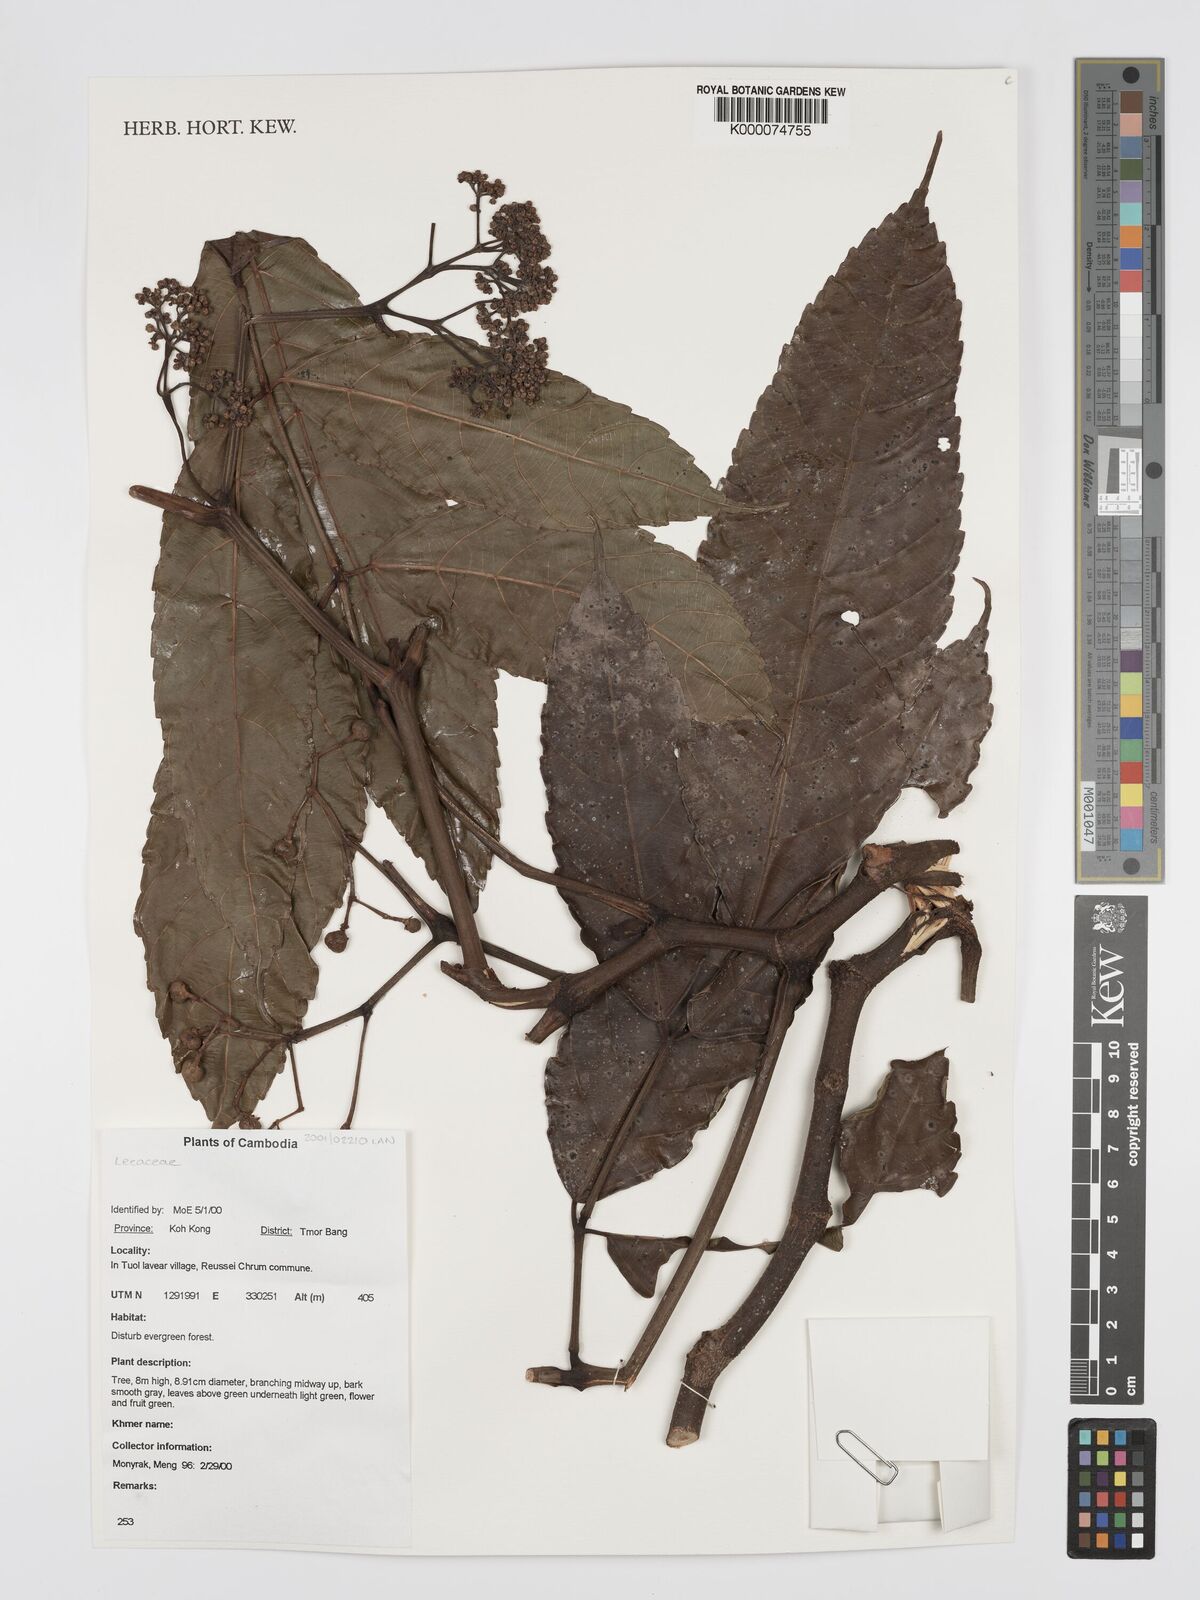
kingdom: Plantae
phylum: Tracheophyta
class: Magnoliopsida
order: Vitales
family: Vitaceae
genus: Leea
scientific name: Leea
